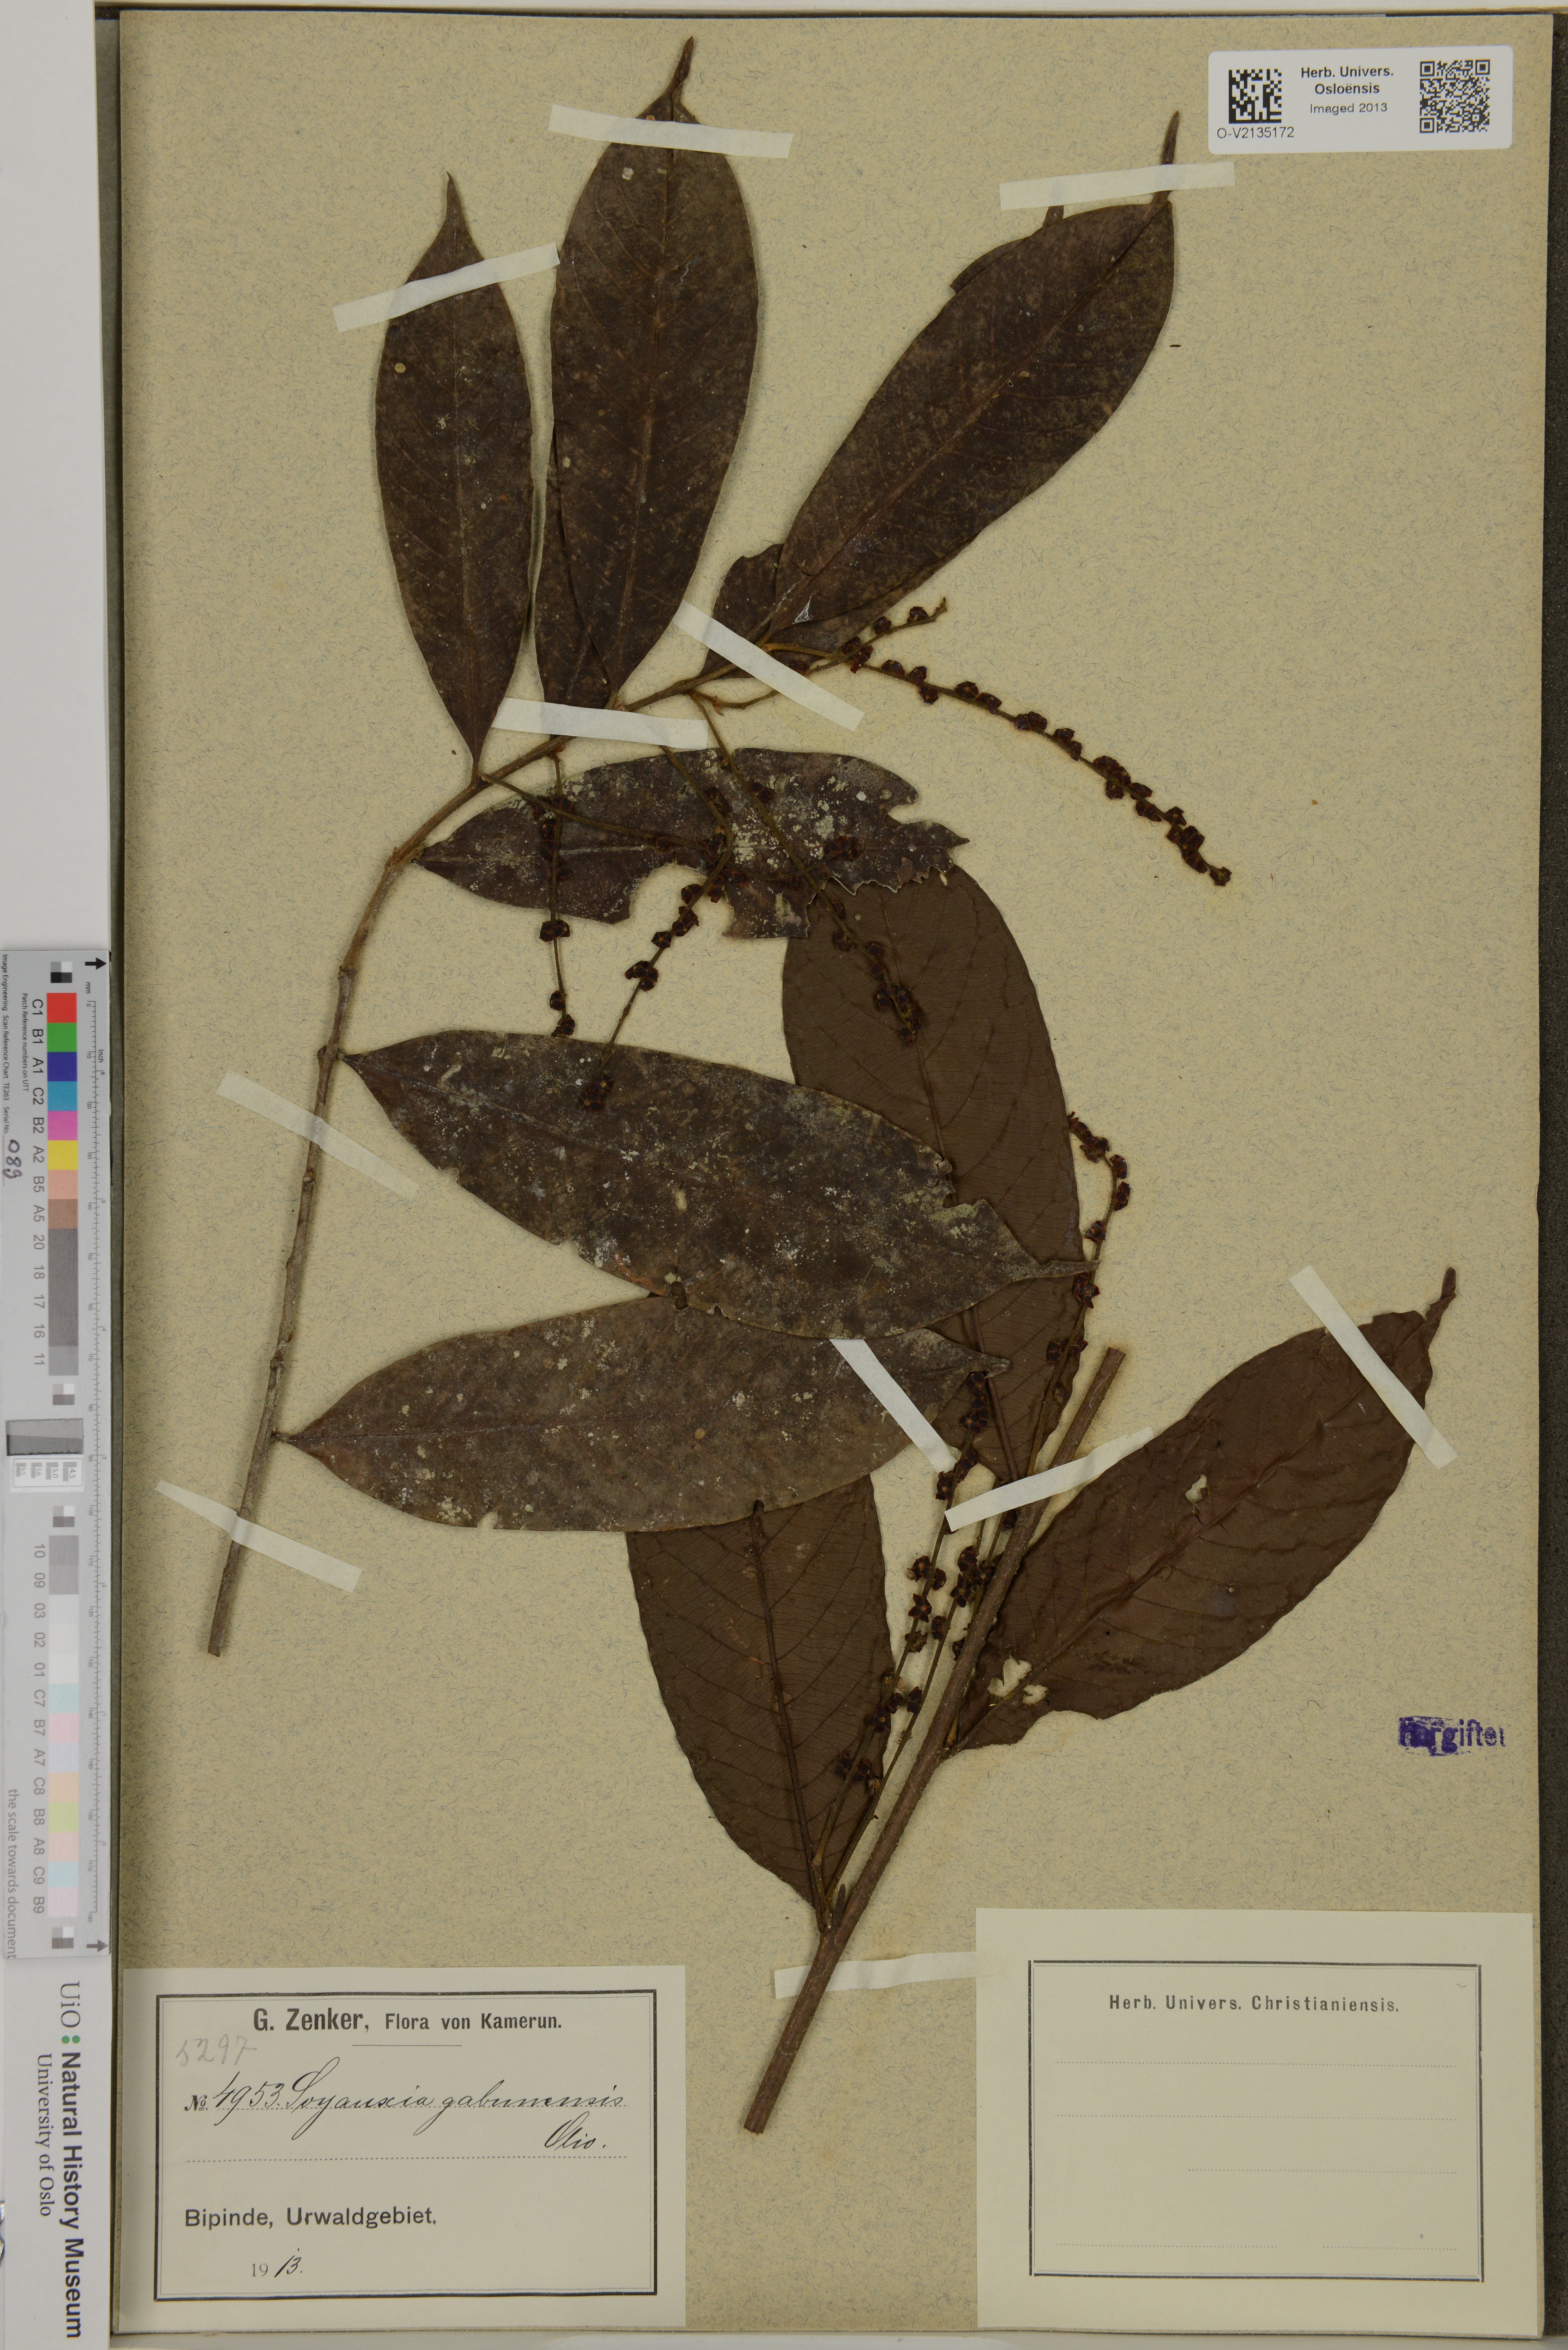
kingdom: Plantae
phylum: Tracheophyta
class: Magnoliopsida
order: Saxifragales
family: Peridiscaceae
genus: Soyauxia
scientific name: Soyauxia gabonensis
